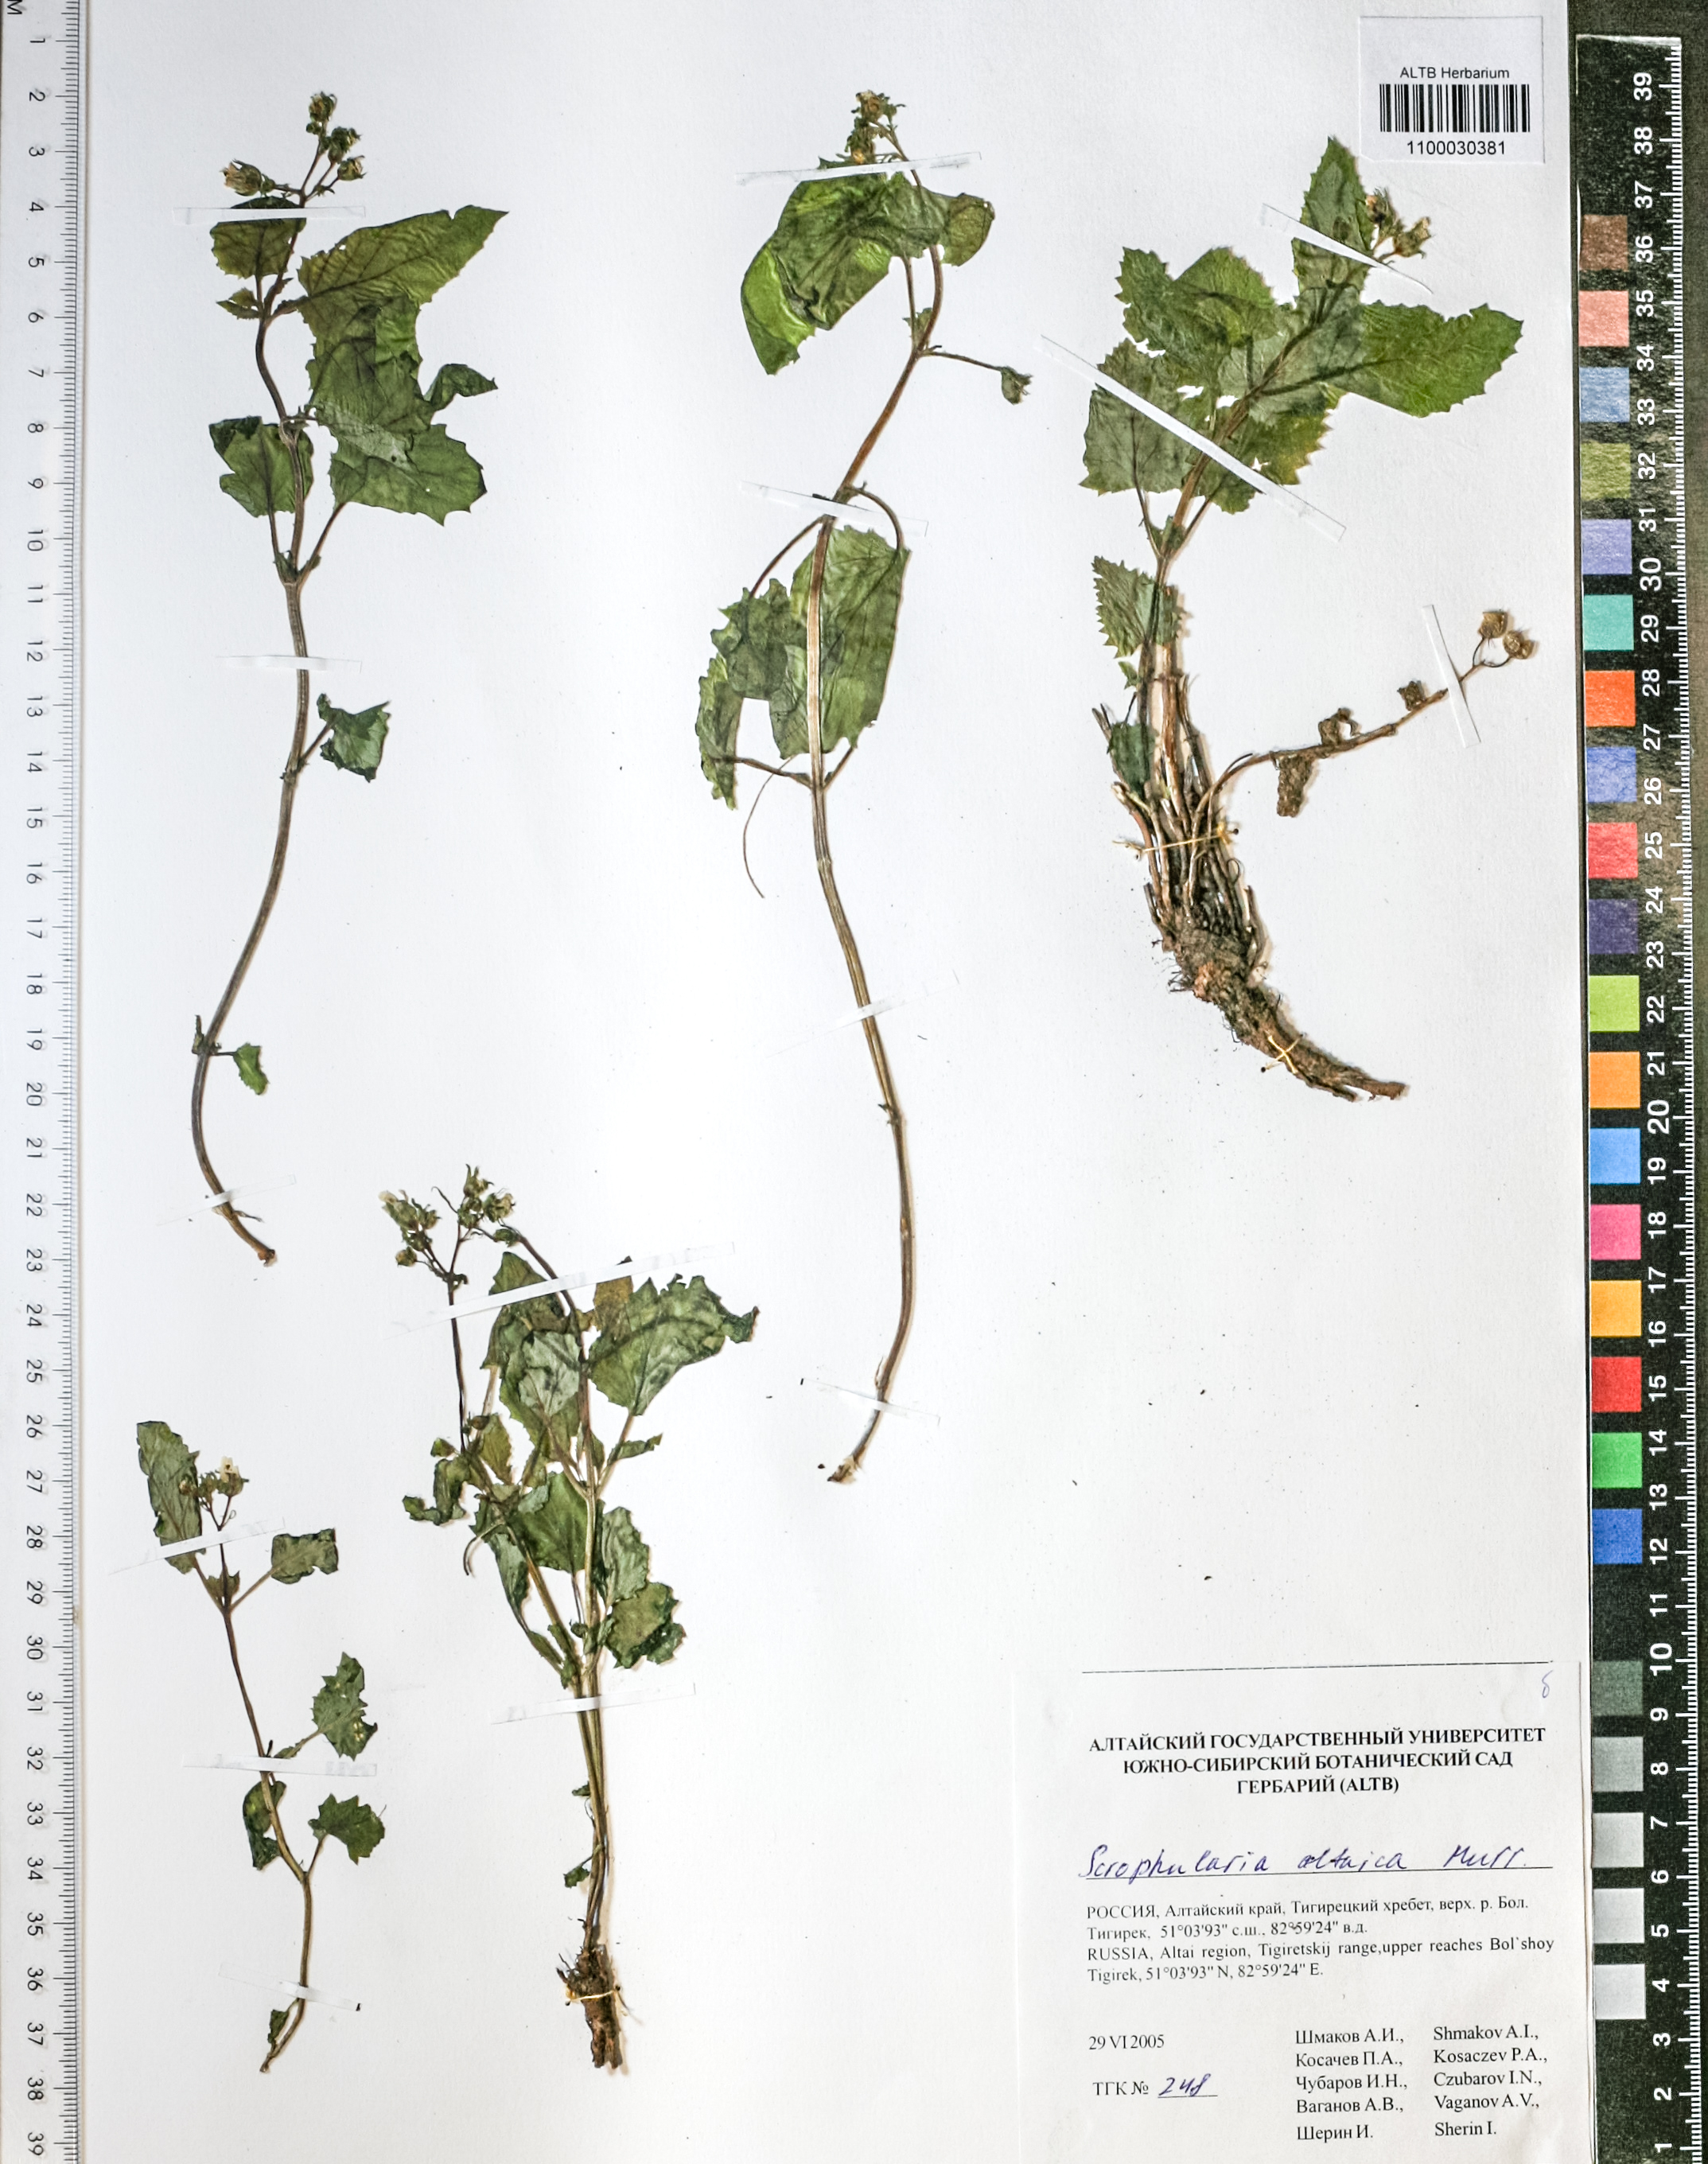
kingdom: Plantae
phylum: Tracheophyta
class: Magnoliopsida
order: Lamiales
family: Scrophulariaceae
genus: Scrophularia
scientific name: Scrophularia altaica
